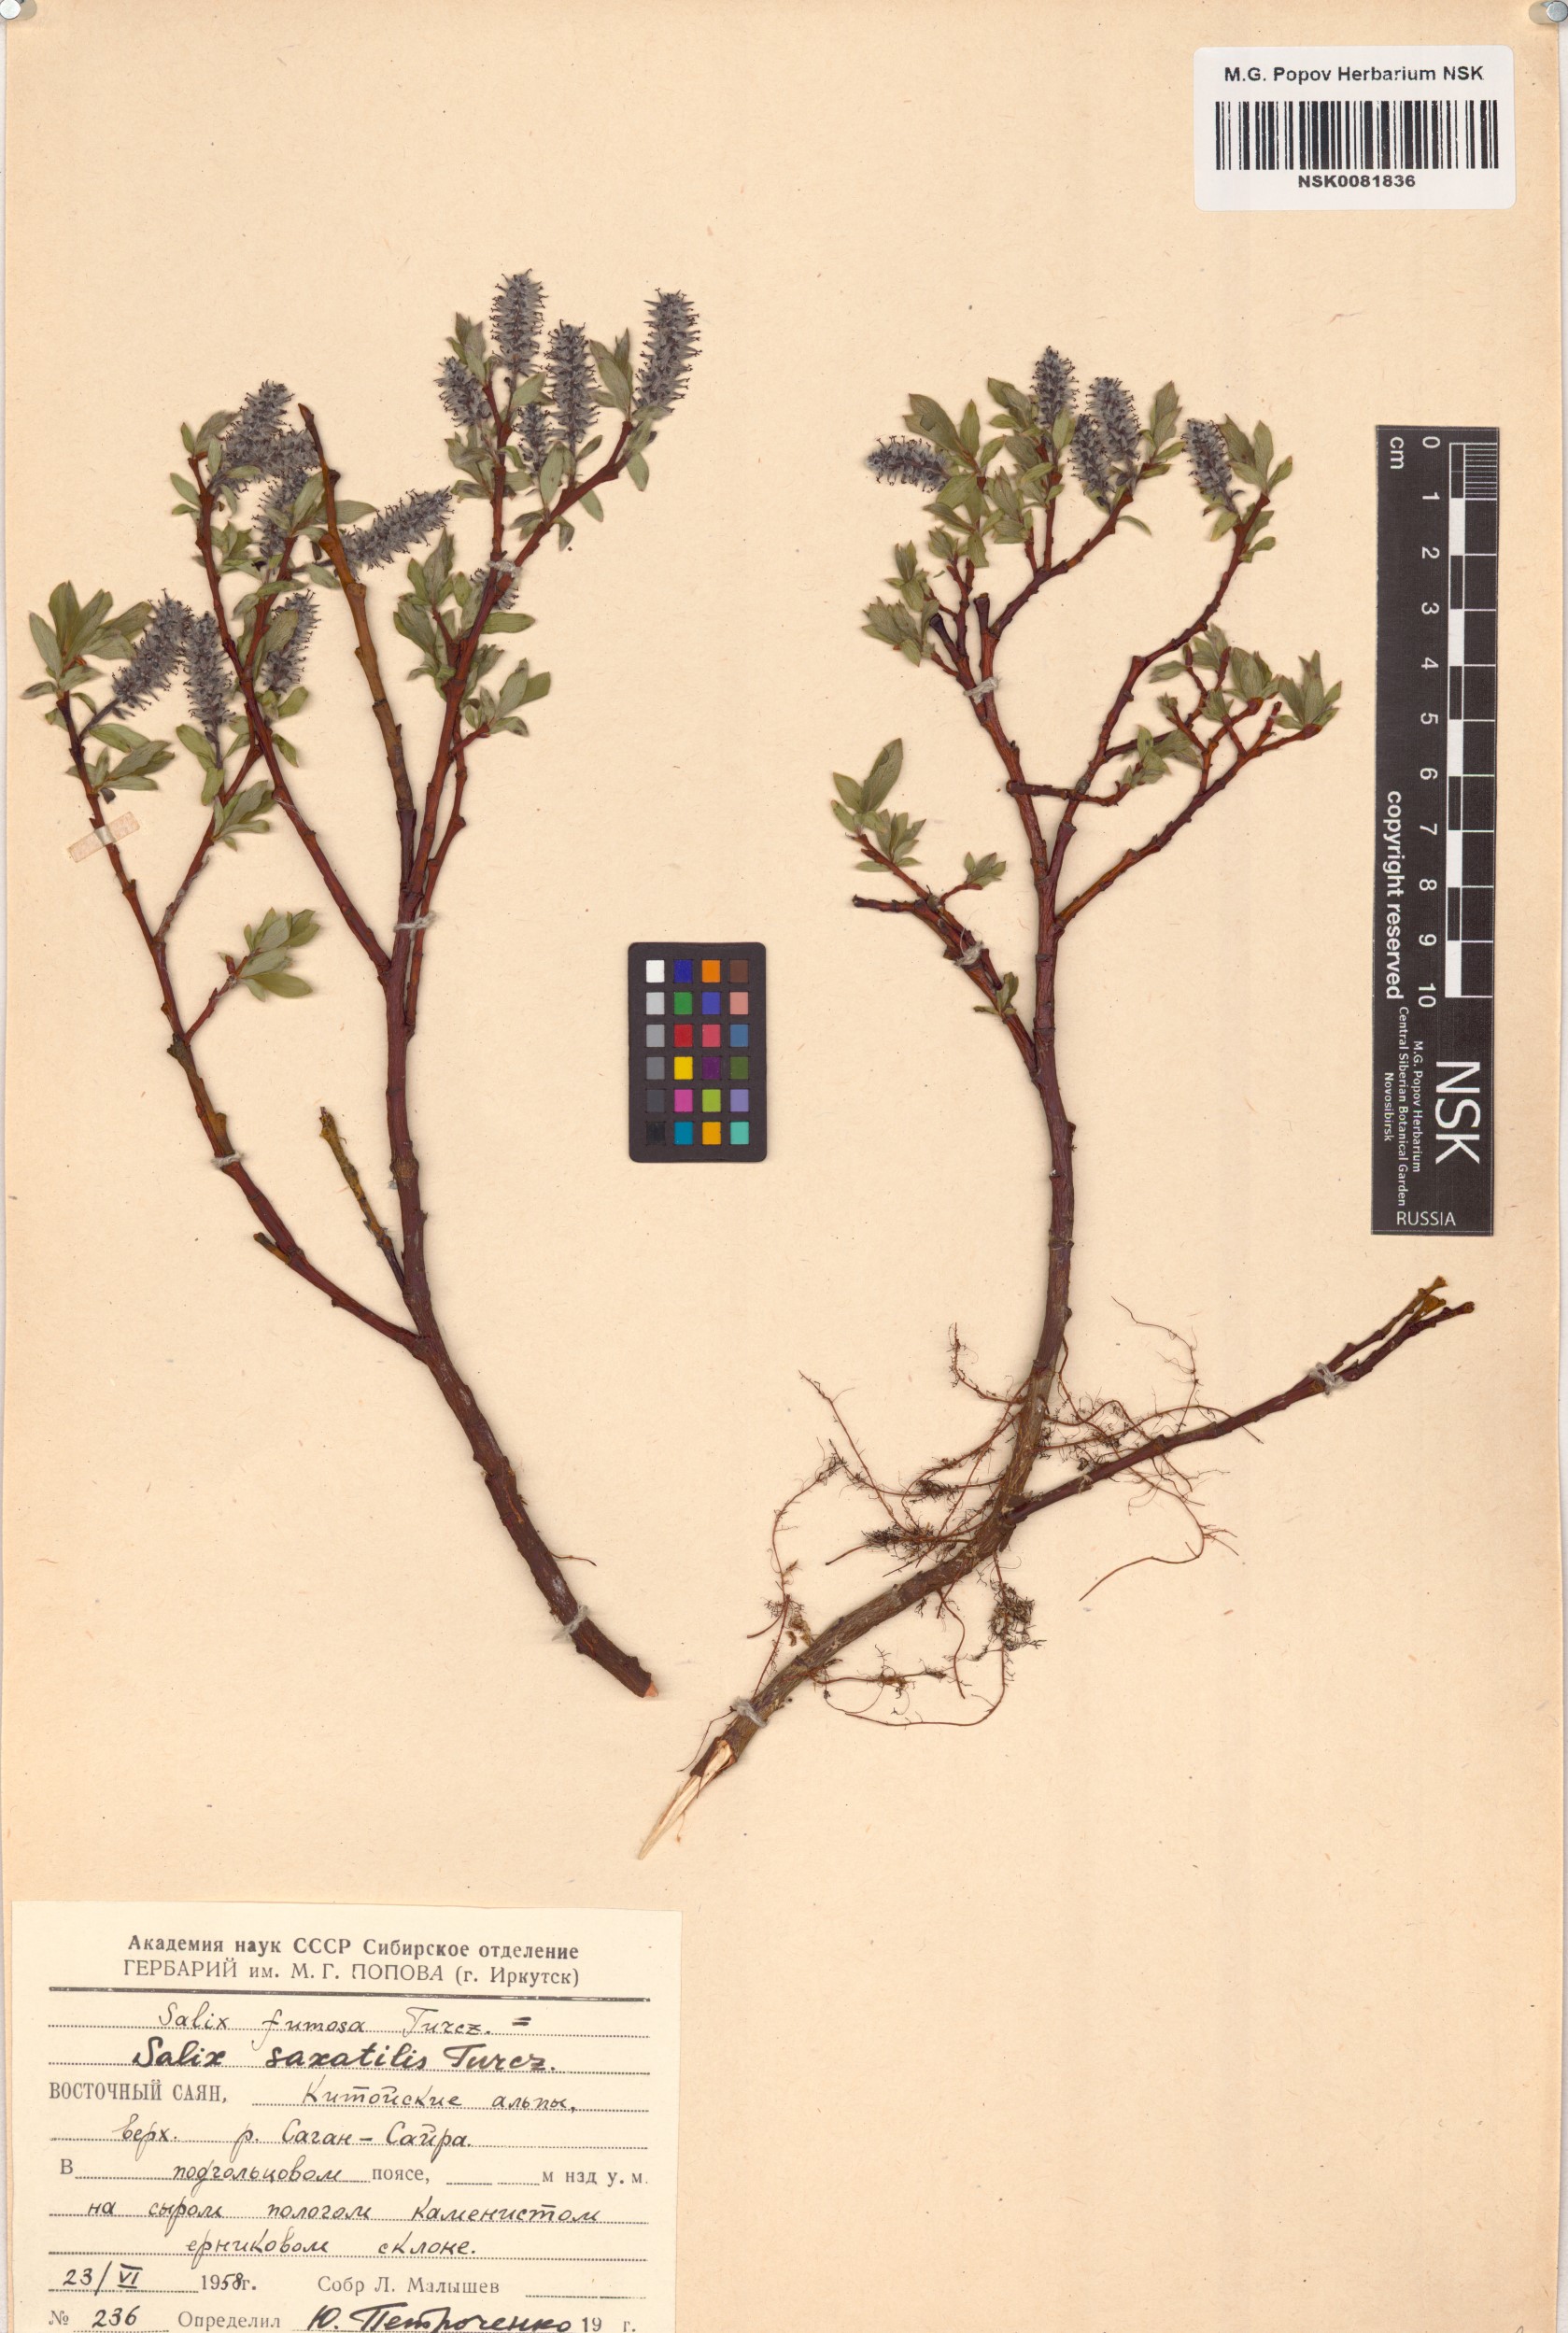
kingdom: Plantae
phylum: Tracheophyta
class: Magnoliopsida
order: Malpighiales
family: Salicaceae
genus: Salix
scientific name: Salix saxatilis
